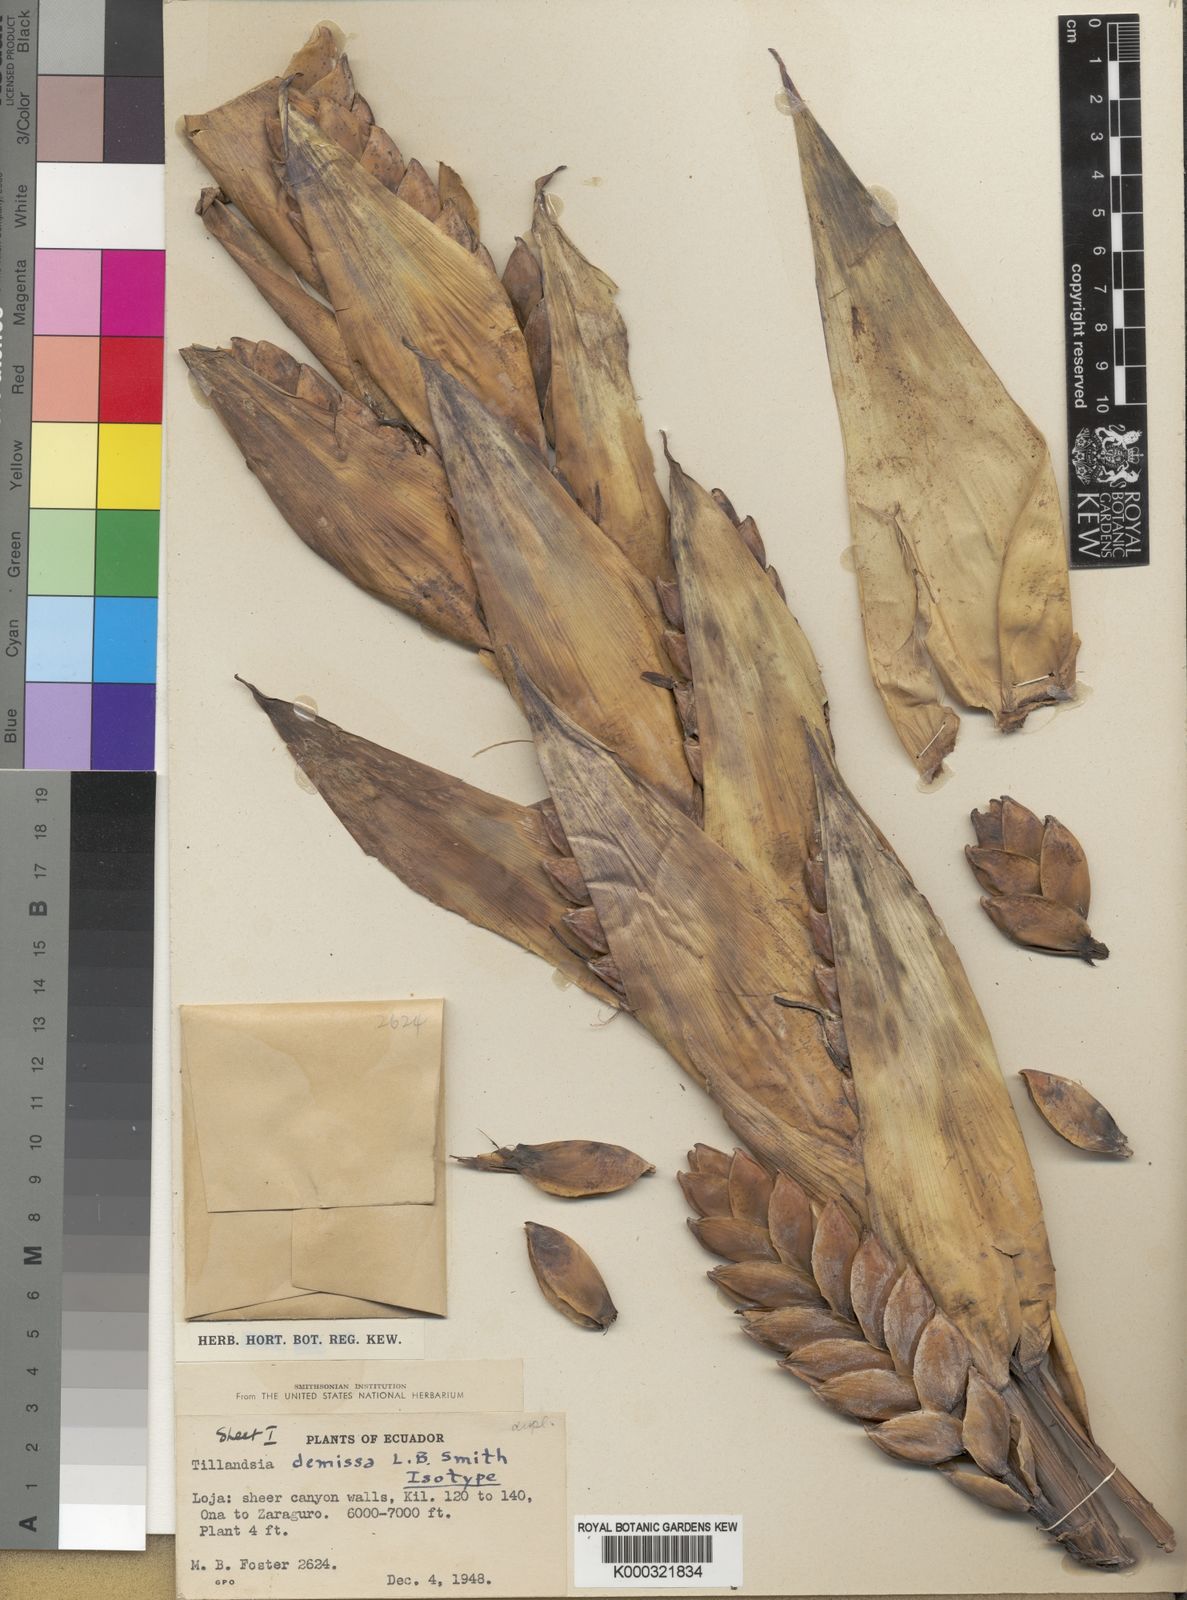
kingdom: Plantae
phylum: Tracheophyta
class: Liliopsida
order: Poales
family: Bromeliaceae
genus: Tillandsia
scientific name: Tillandsia demissa
